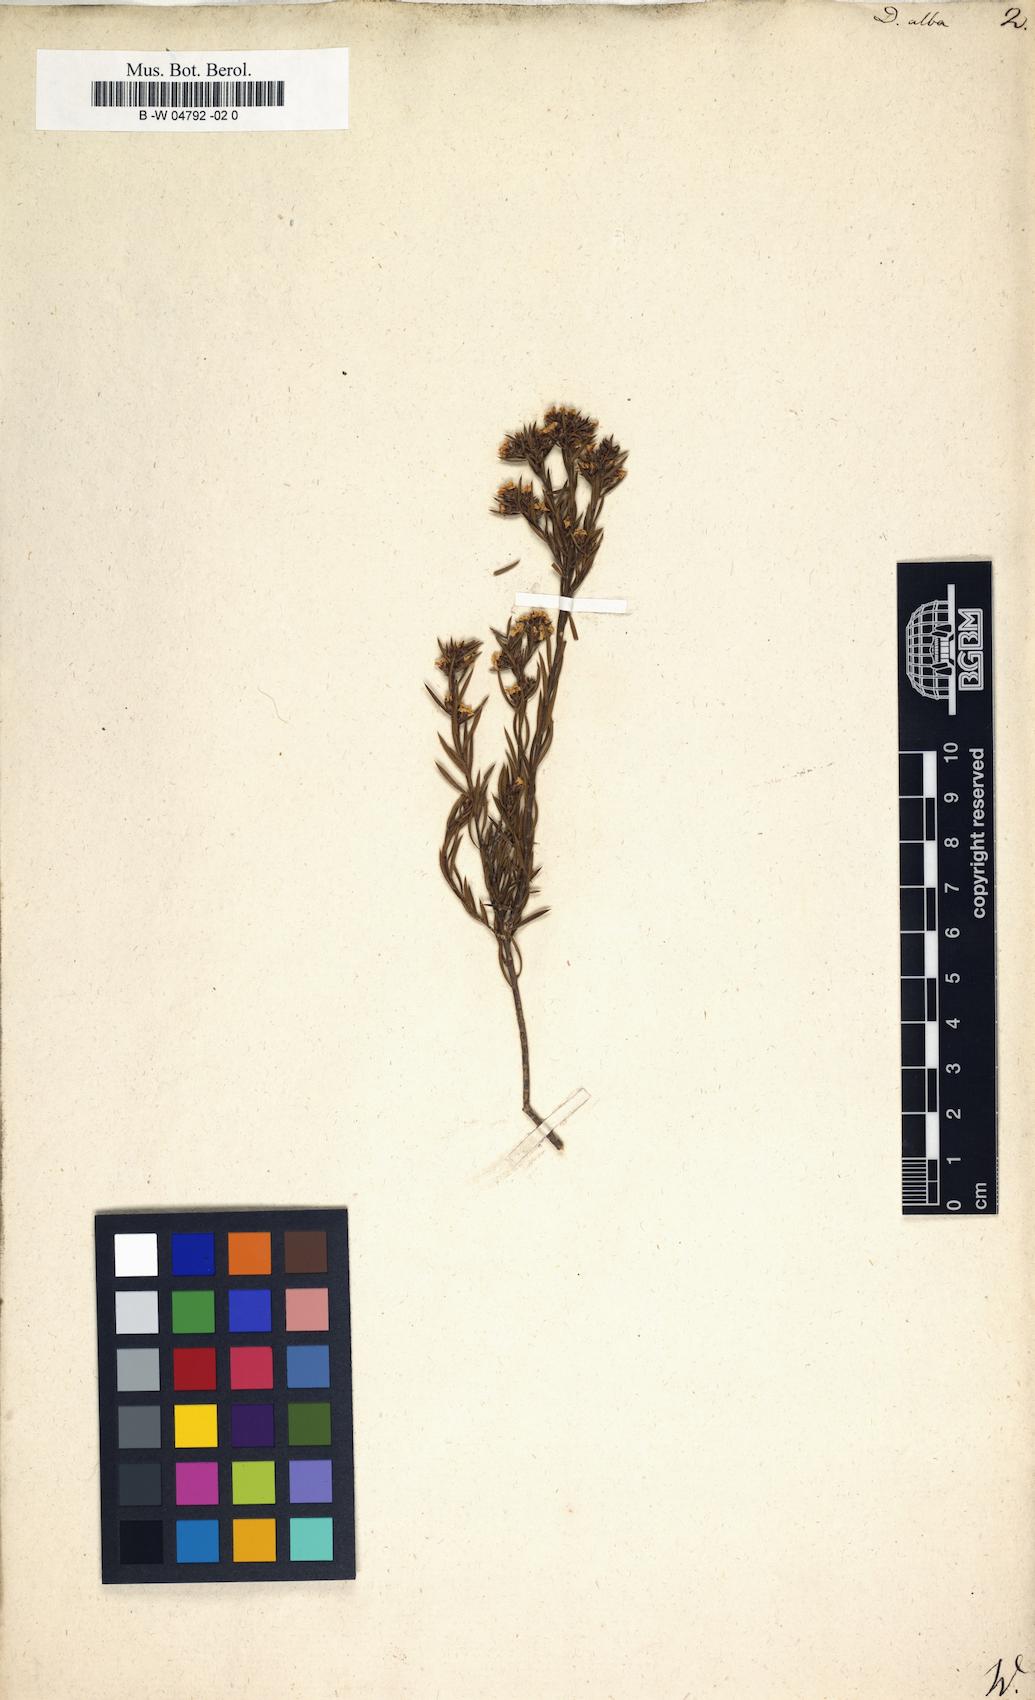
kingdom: Plantae
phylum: Tracheophyta
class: Magnoliopsida
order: Sapindales
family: Rutaceae
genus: Coleonema
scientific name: Coleonema album
